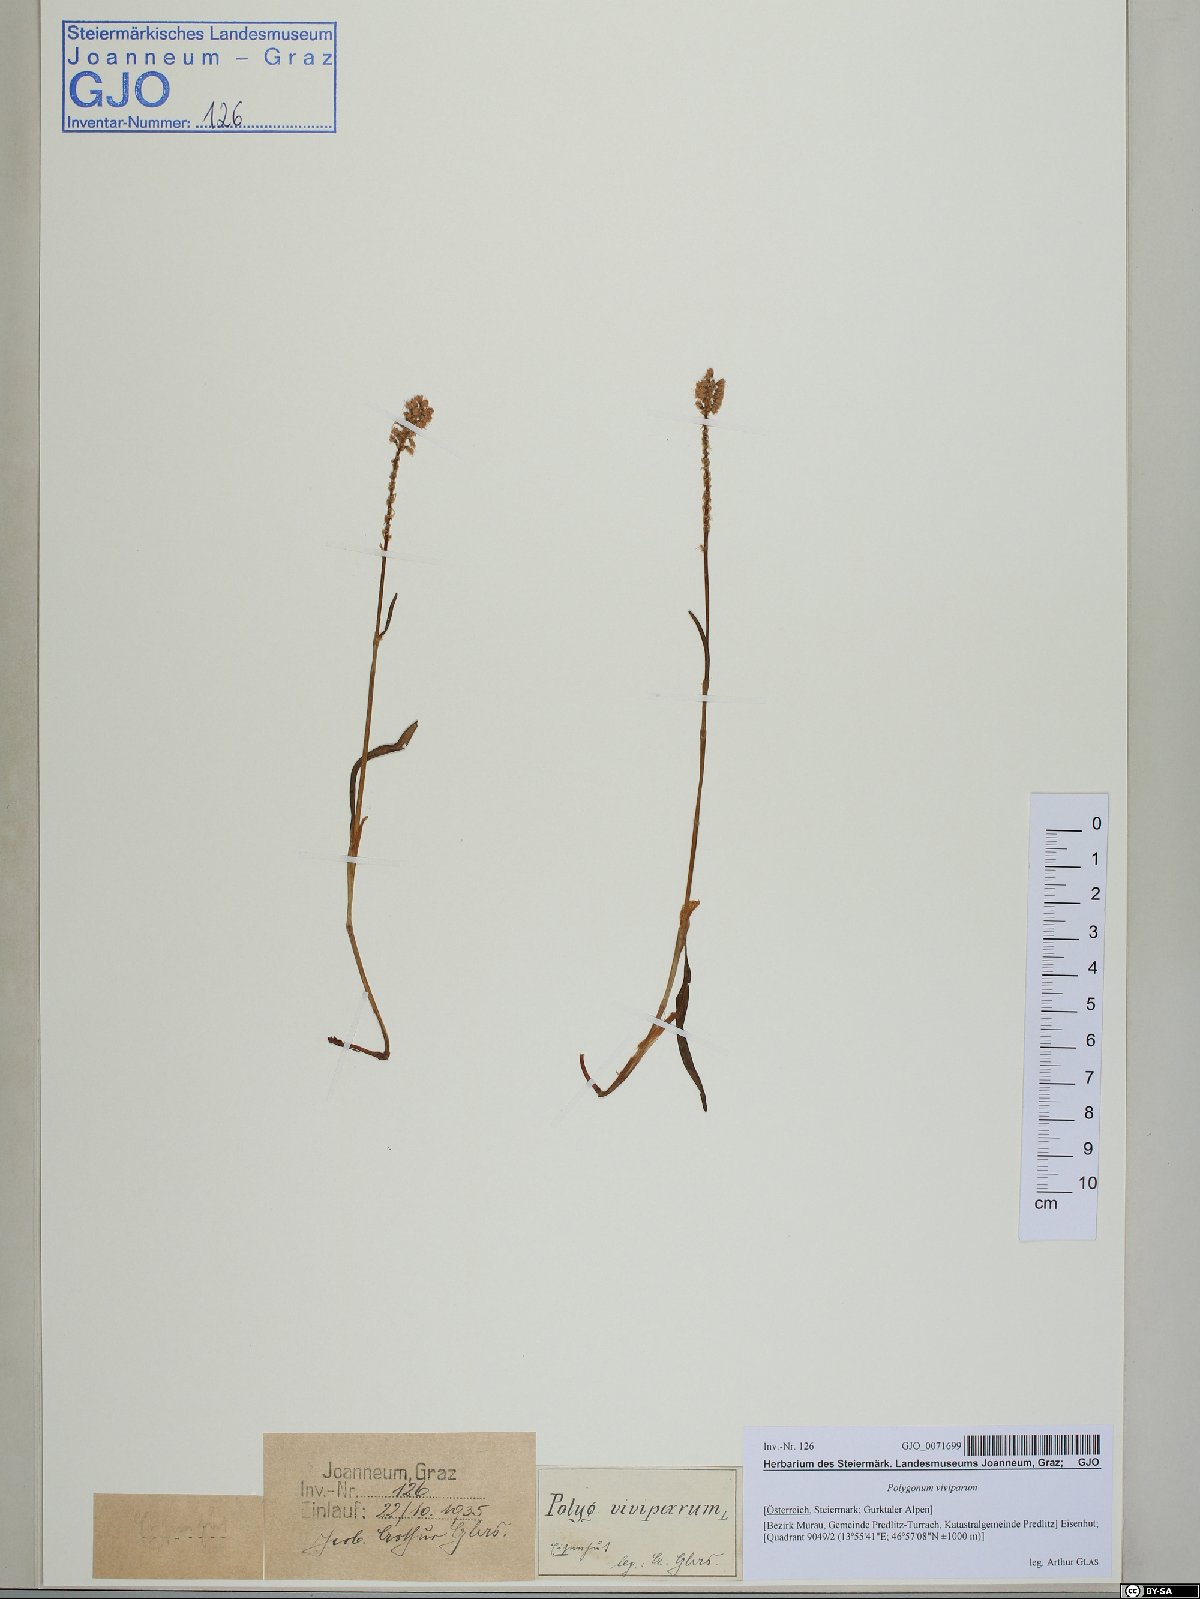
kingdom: Plantae
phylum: Tracheophyta
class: Magnoliopsida
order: Caryophyllales
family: Polygonaceae
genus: Bistorta
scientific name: Bistorta vivipara
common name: Alpine bistort
